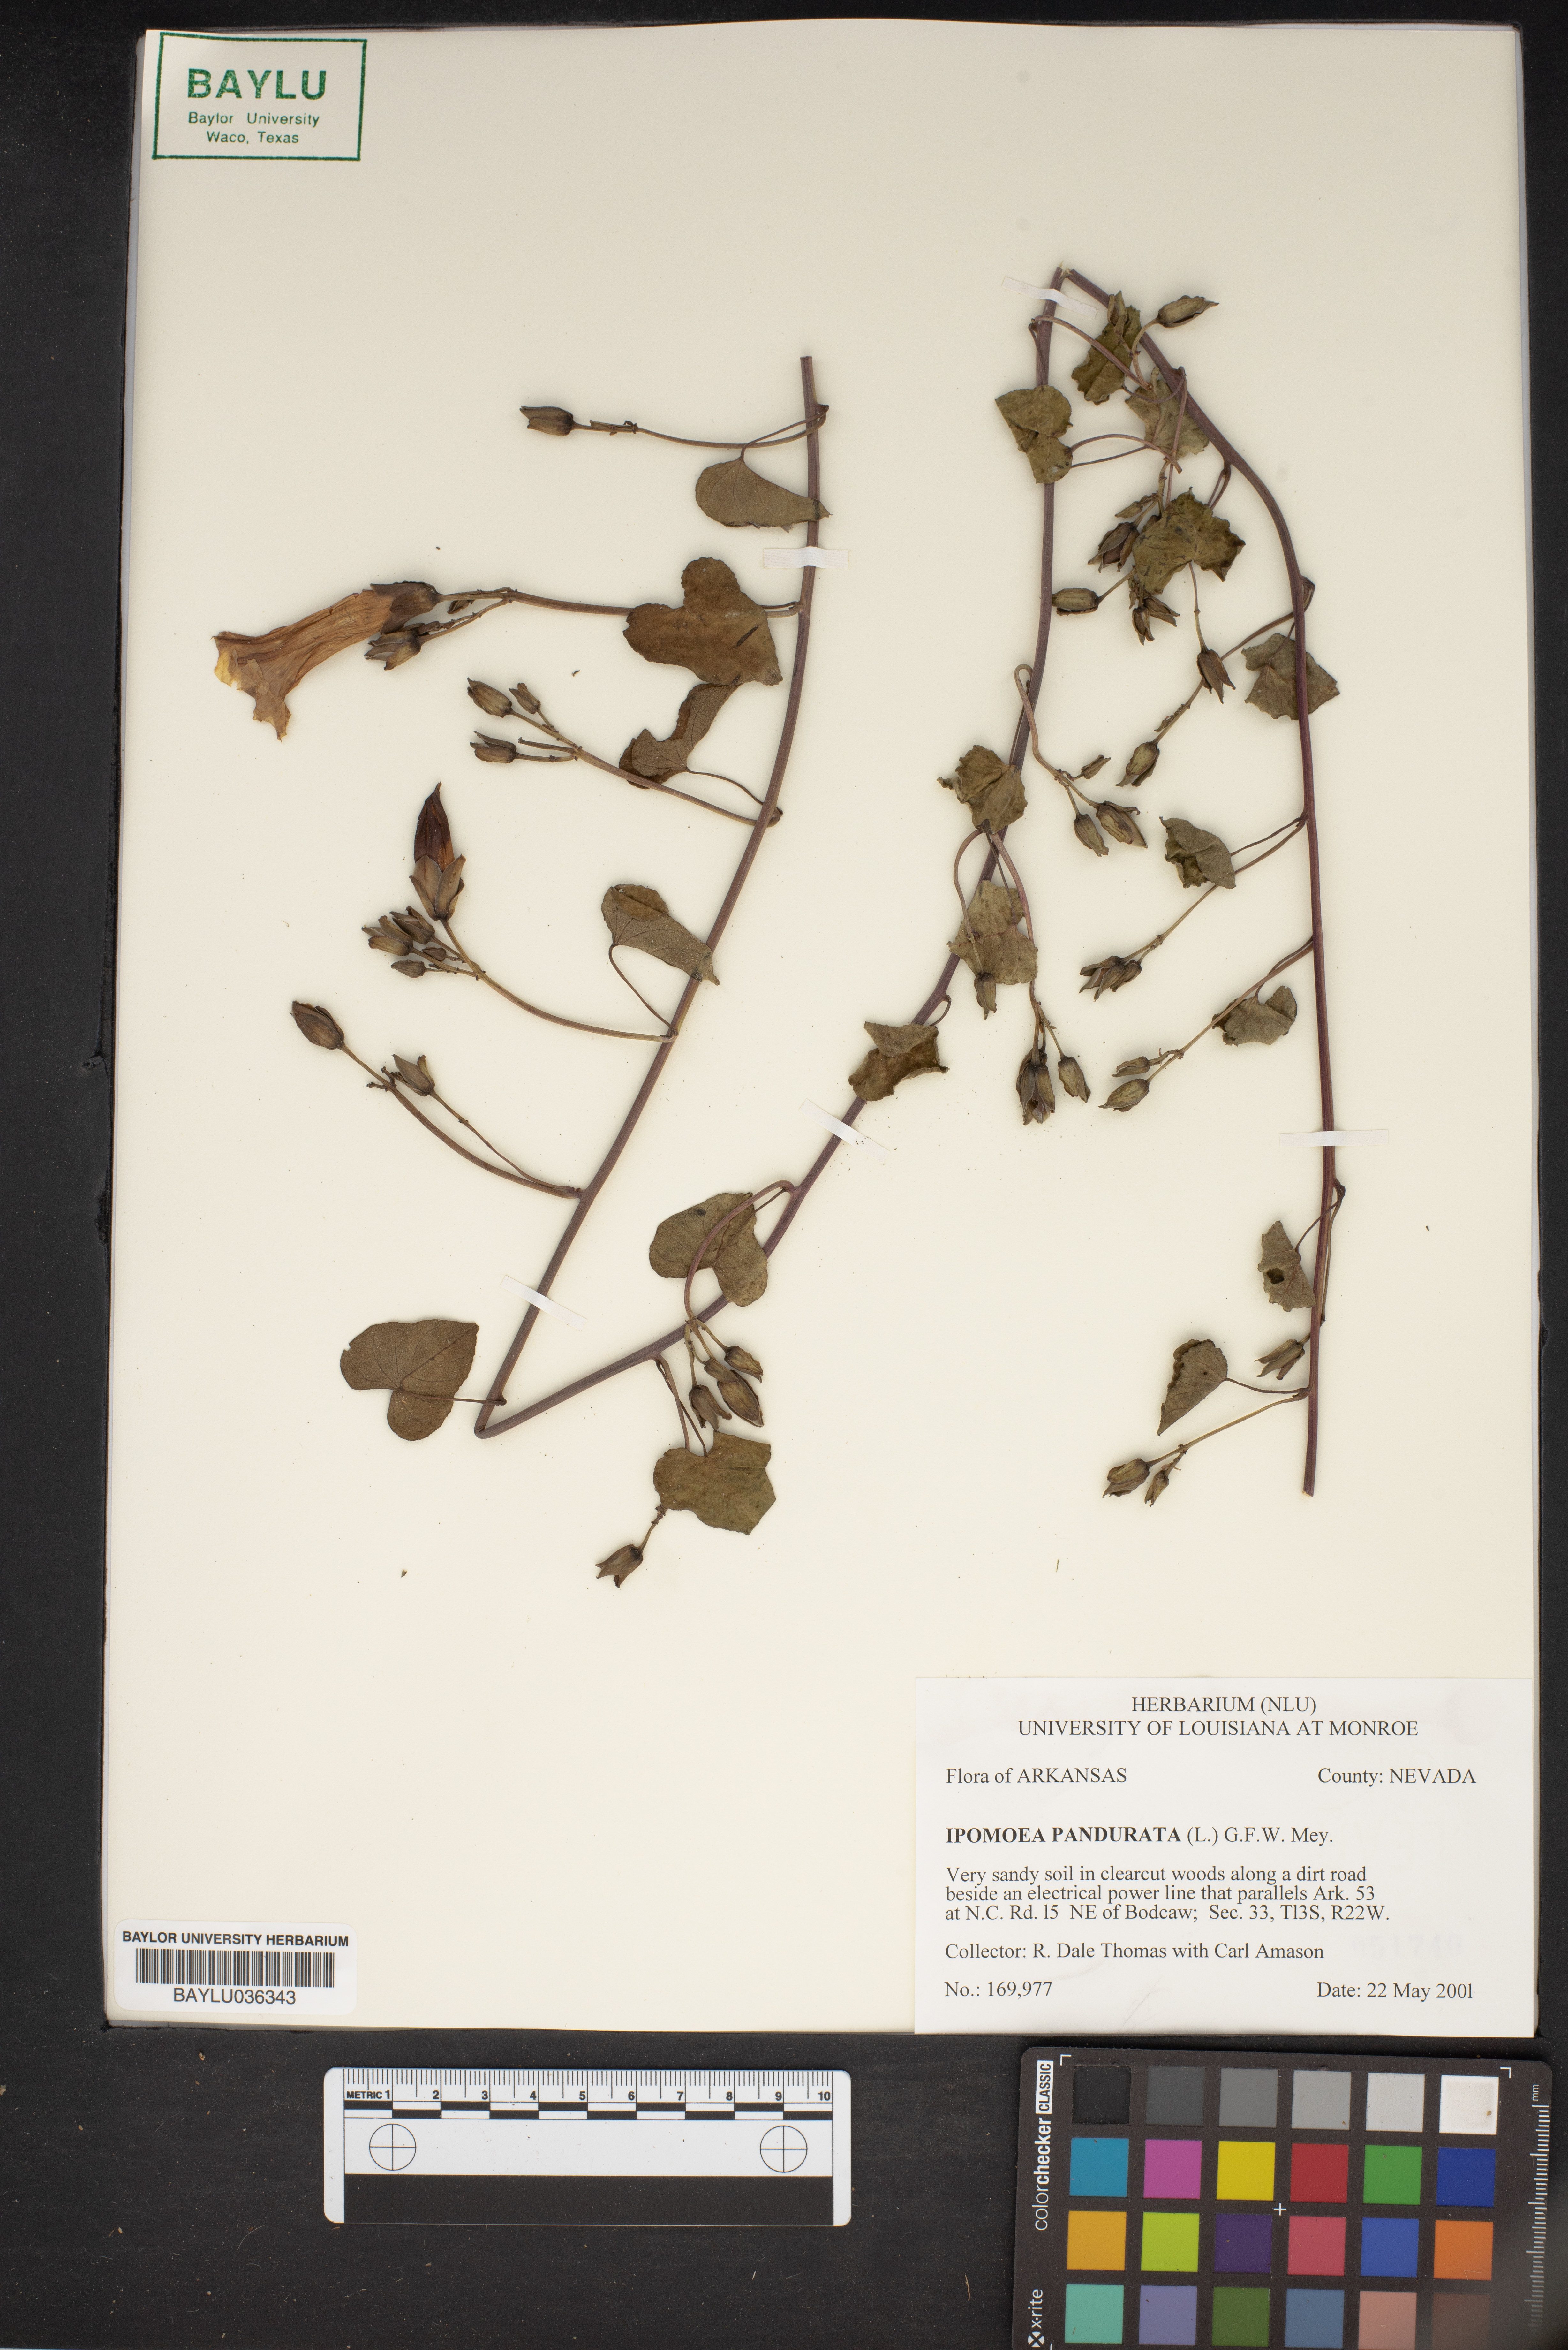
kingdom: Plantae
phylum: Tracheophyta
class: Magnoliopsida
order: Solanales
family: Convolvulaceae
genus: Ipomoea
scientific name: Ipomoea pandurata
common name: Man-of-the-earth
